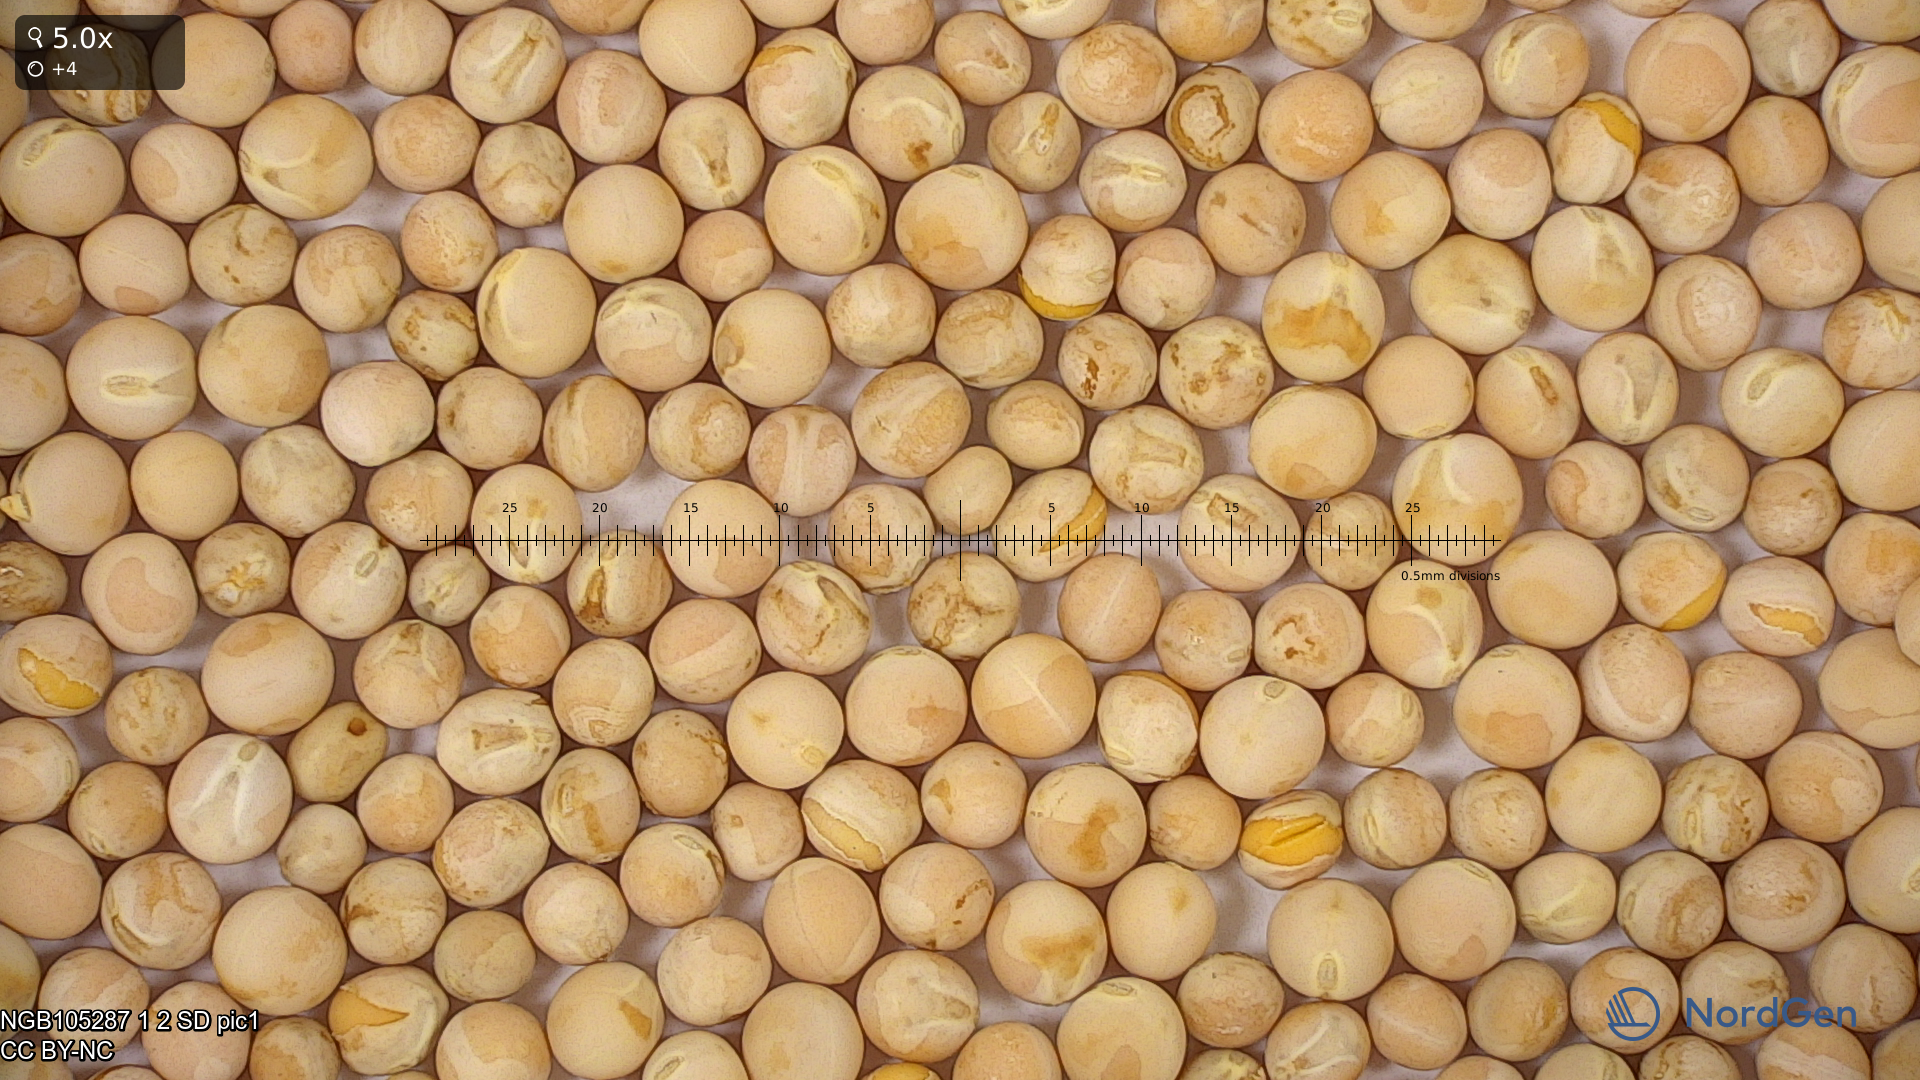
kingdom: Plantae
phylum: Tracheophyta
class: Magnoliopsida
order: Fabales
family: Fabaceae
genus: Lathyrus
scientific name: Lathyrus oleraceus
